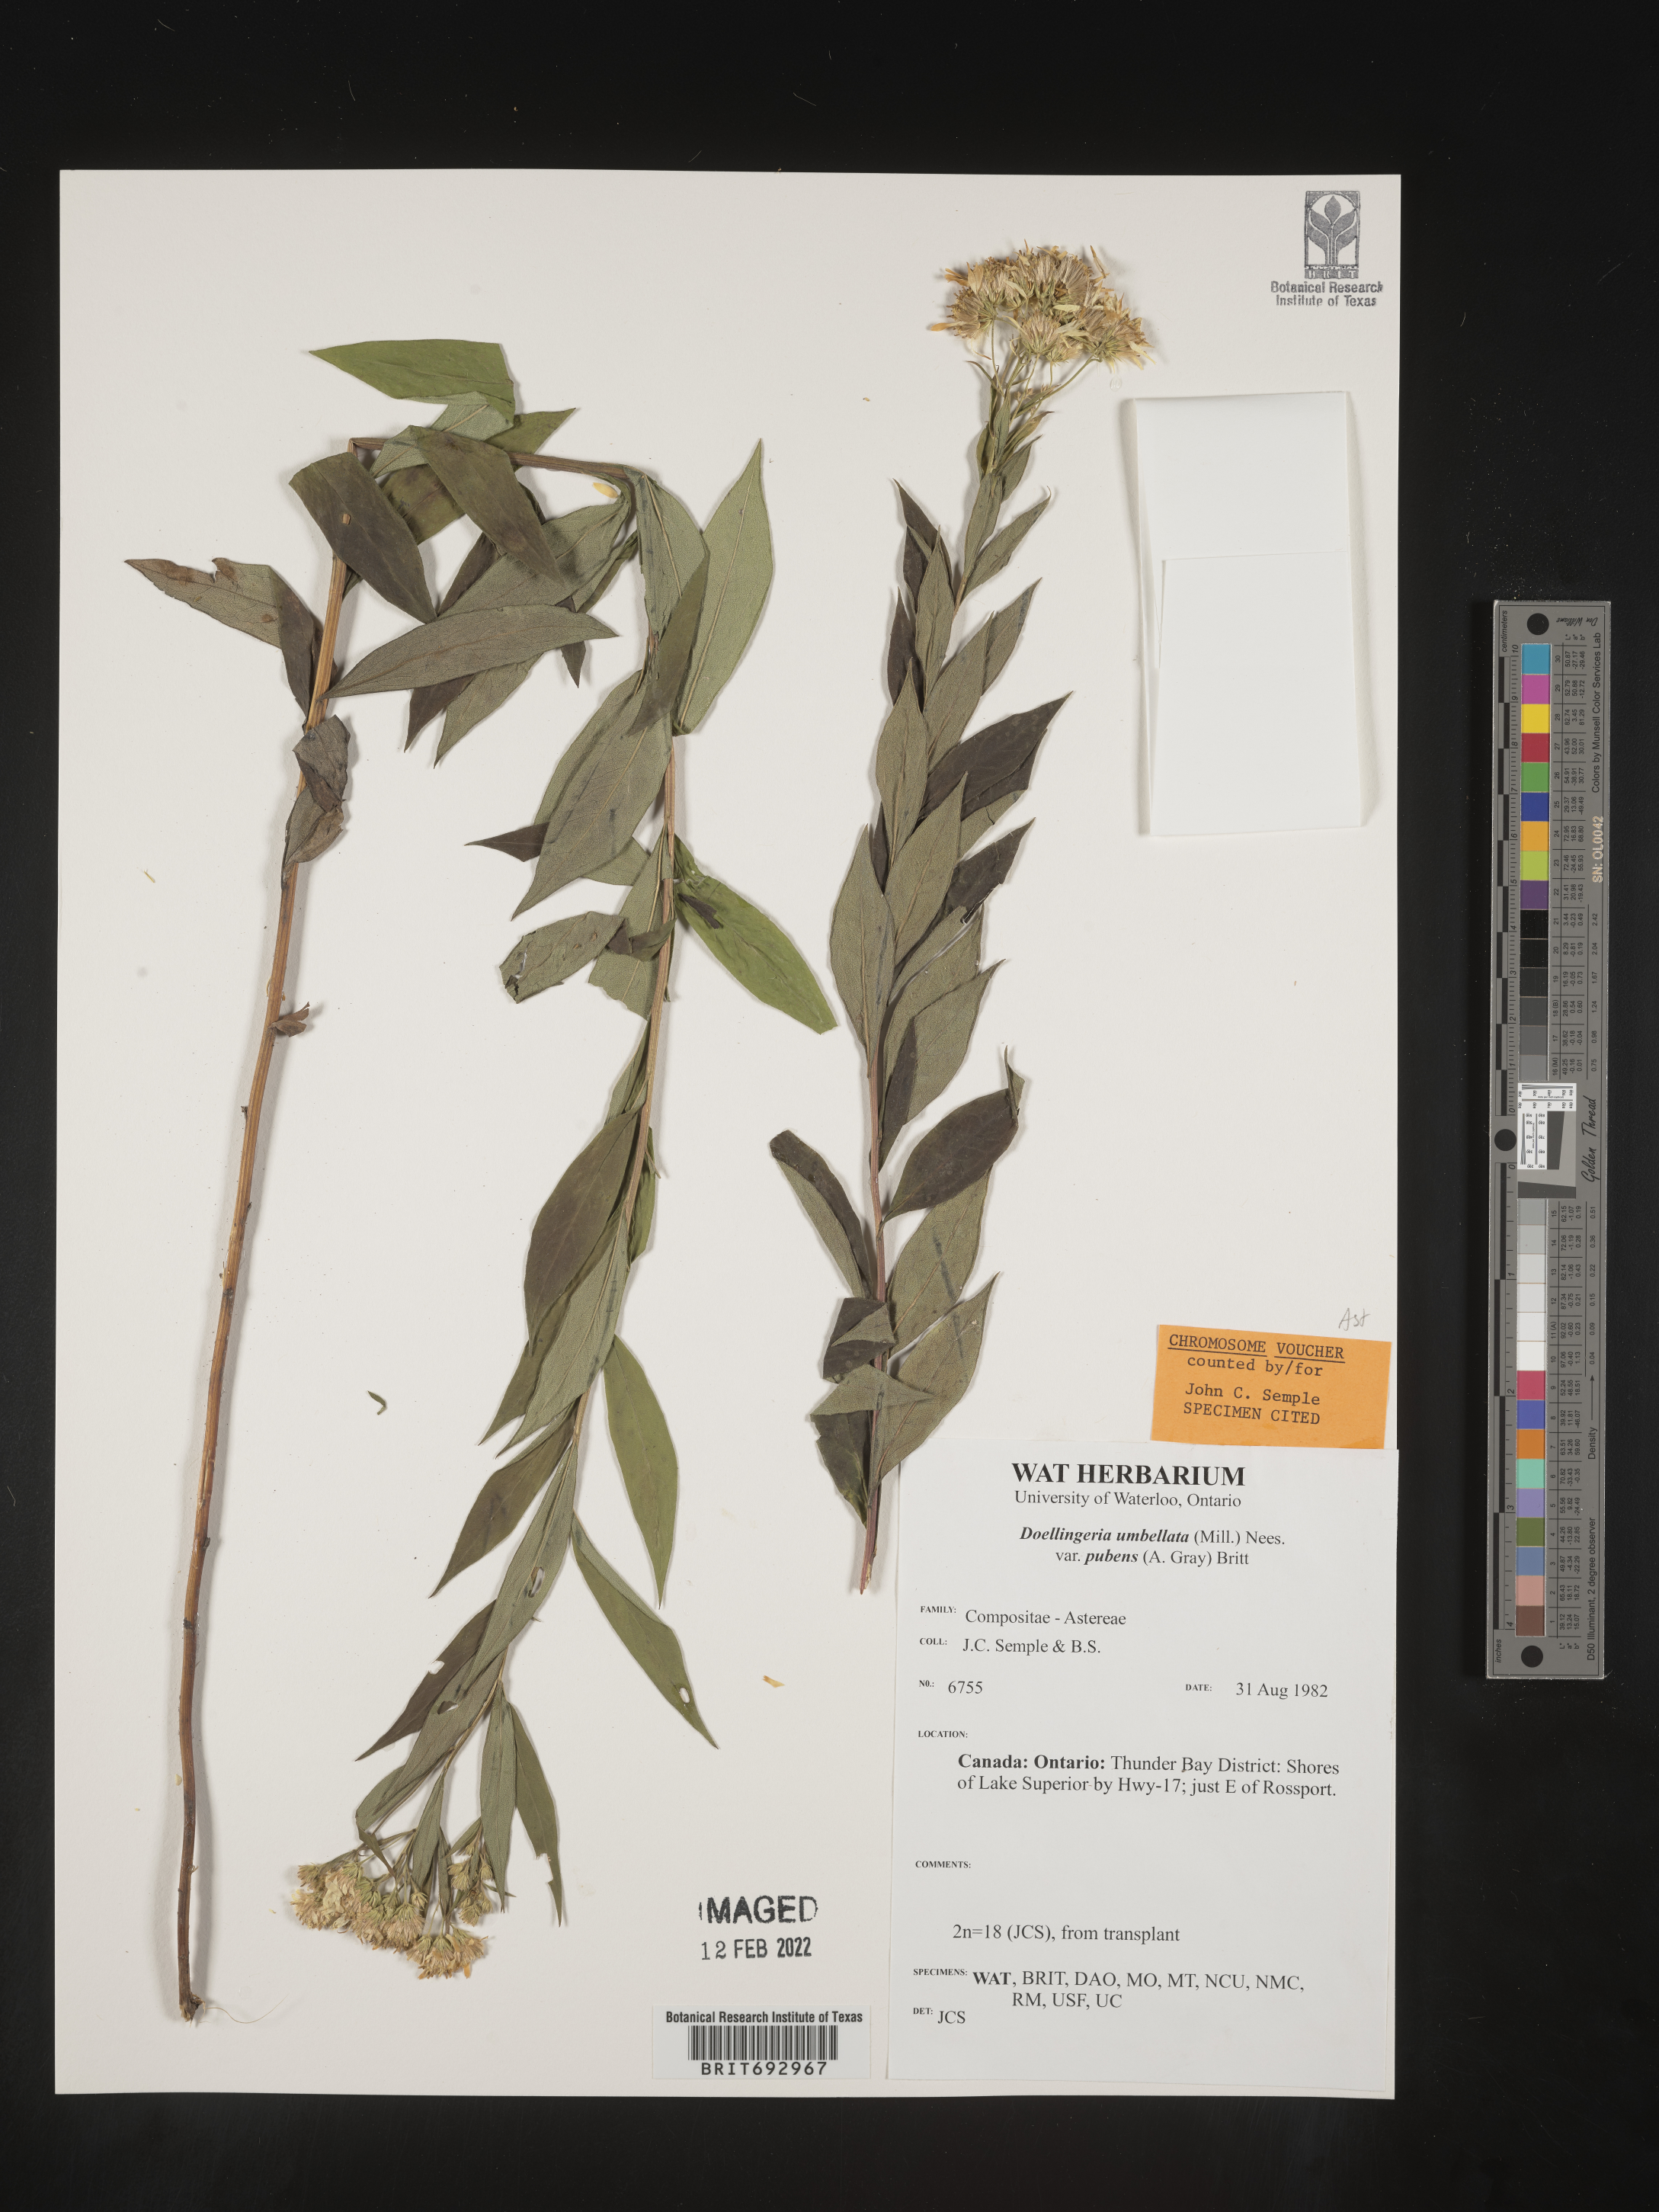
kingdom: Plantae
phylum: Tracheophyta
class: Magnoliopsida
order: Asterales
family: Asteraceae
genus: Doellingeria
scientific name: Doellingeria umbellata
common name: Flat-top white aster
